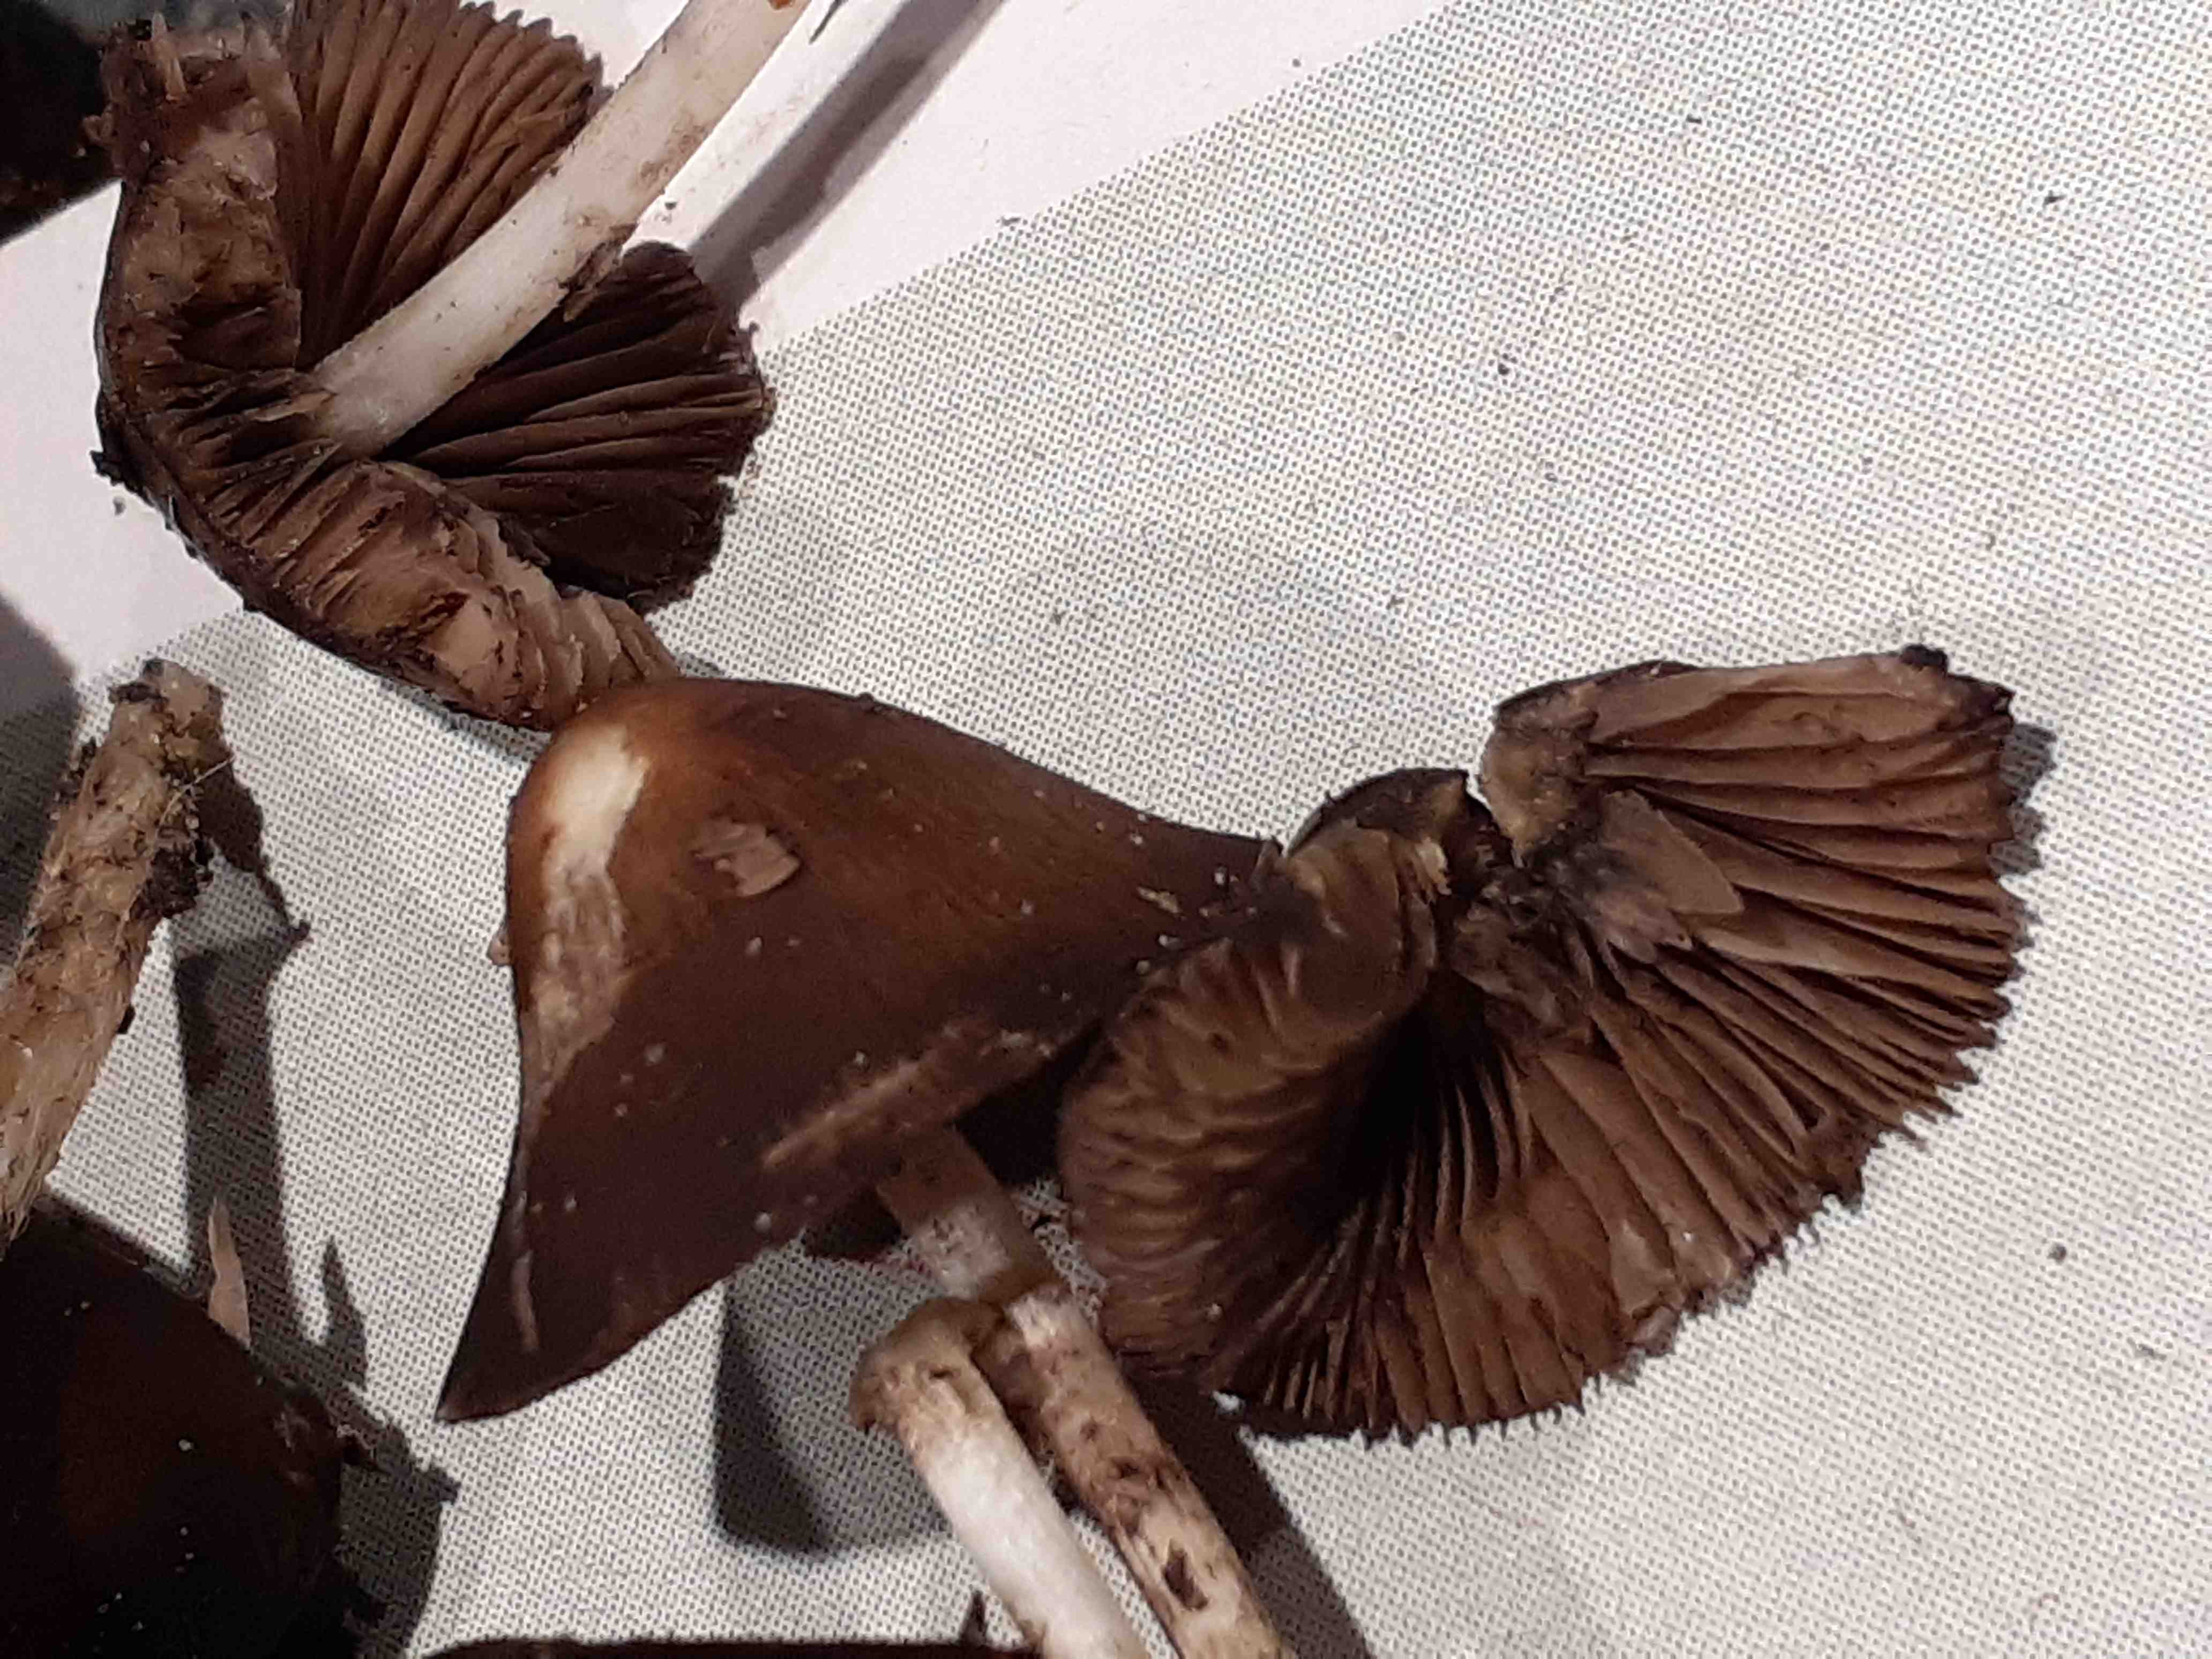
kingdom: Fungi
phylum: Basidiomycota
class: Agaricomycetes
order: Agaricales
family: Psathyrellaceae
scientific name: Psathyrellaceae
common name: mørkhatfamilien
